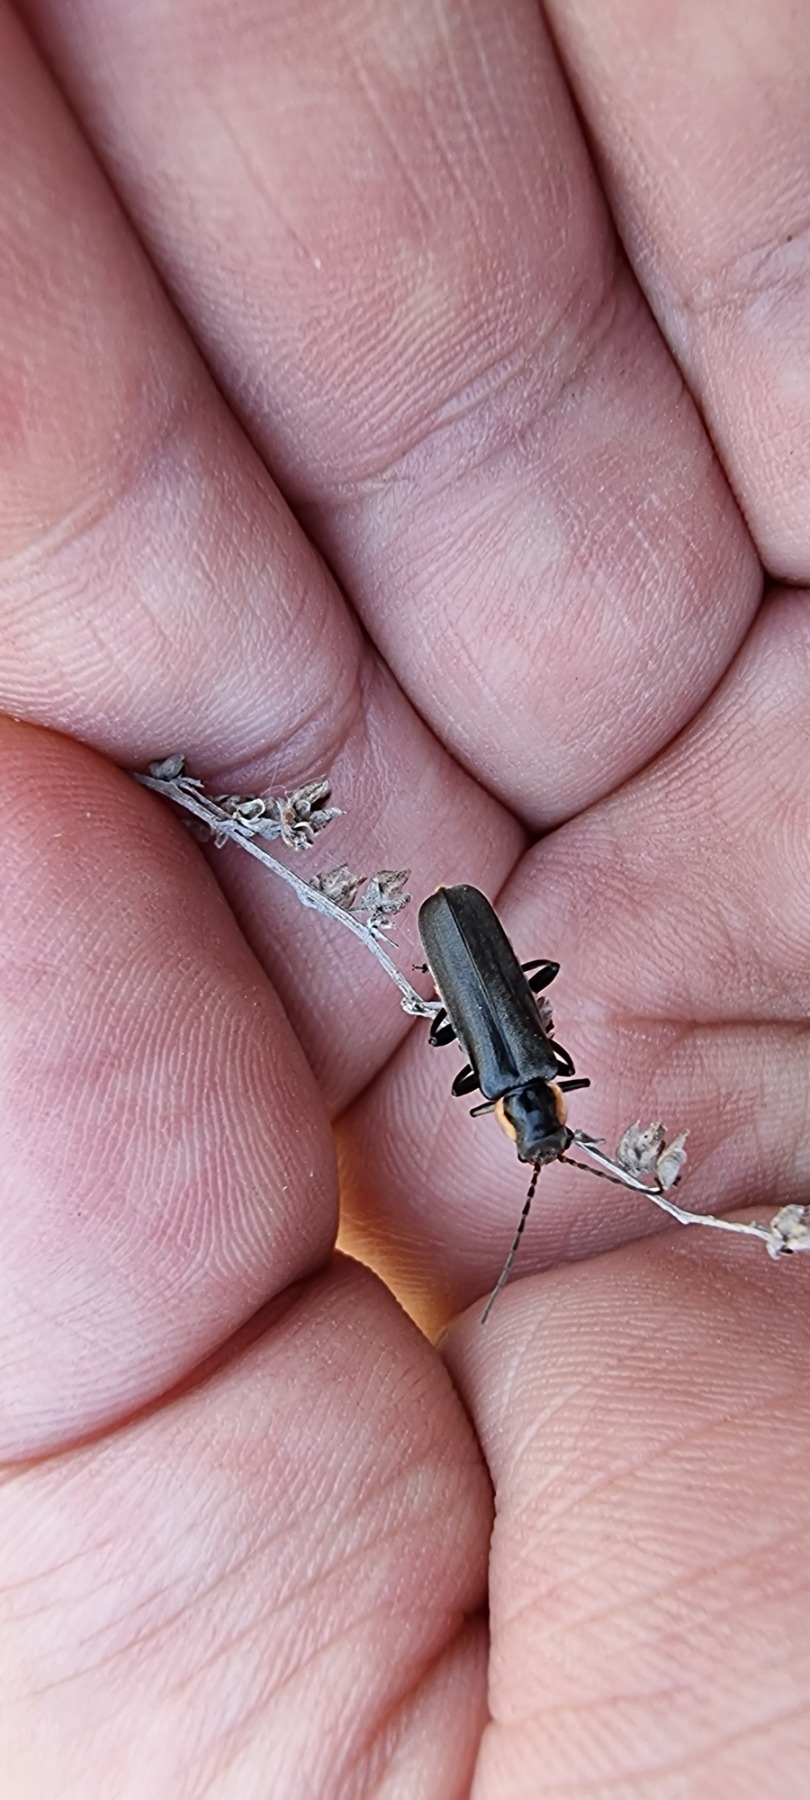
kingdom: Animalia
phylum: Arthropoda
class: Insecta
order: Coleoptera
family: Cantharidae
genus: Cantharis
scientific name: Cantharis obscura
